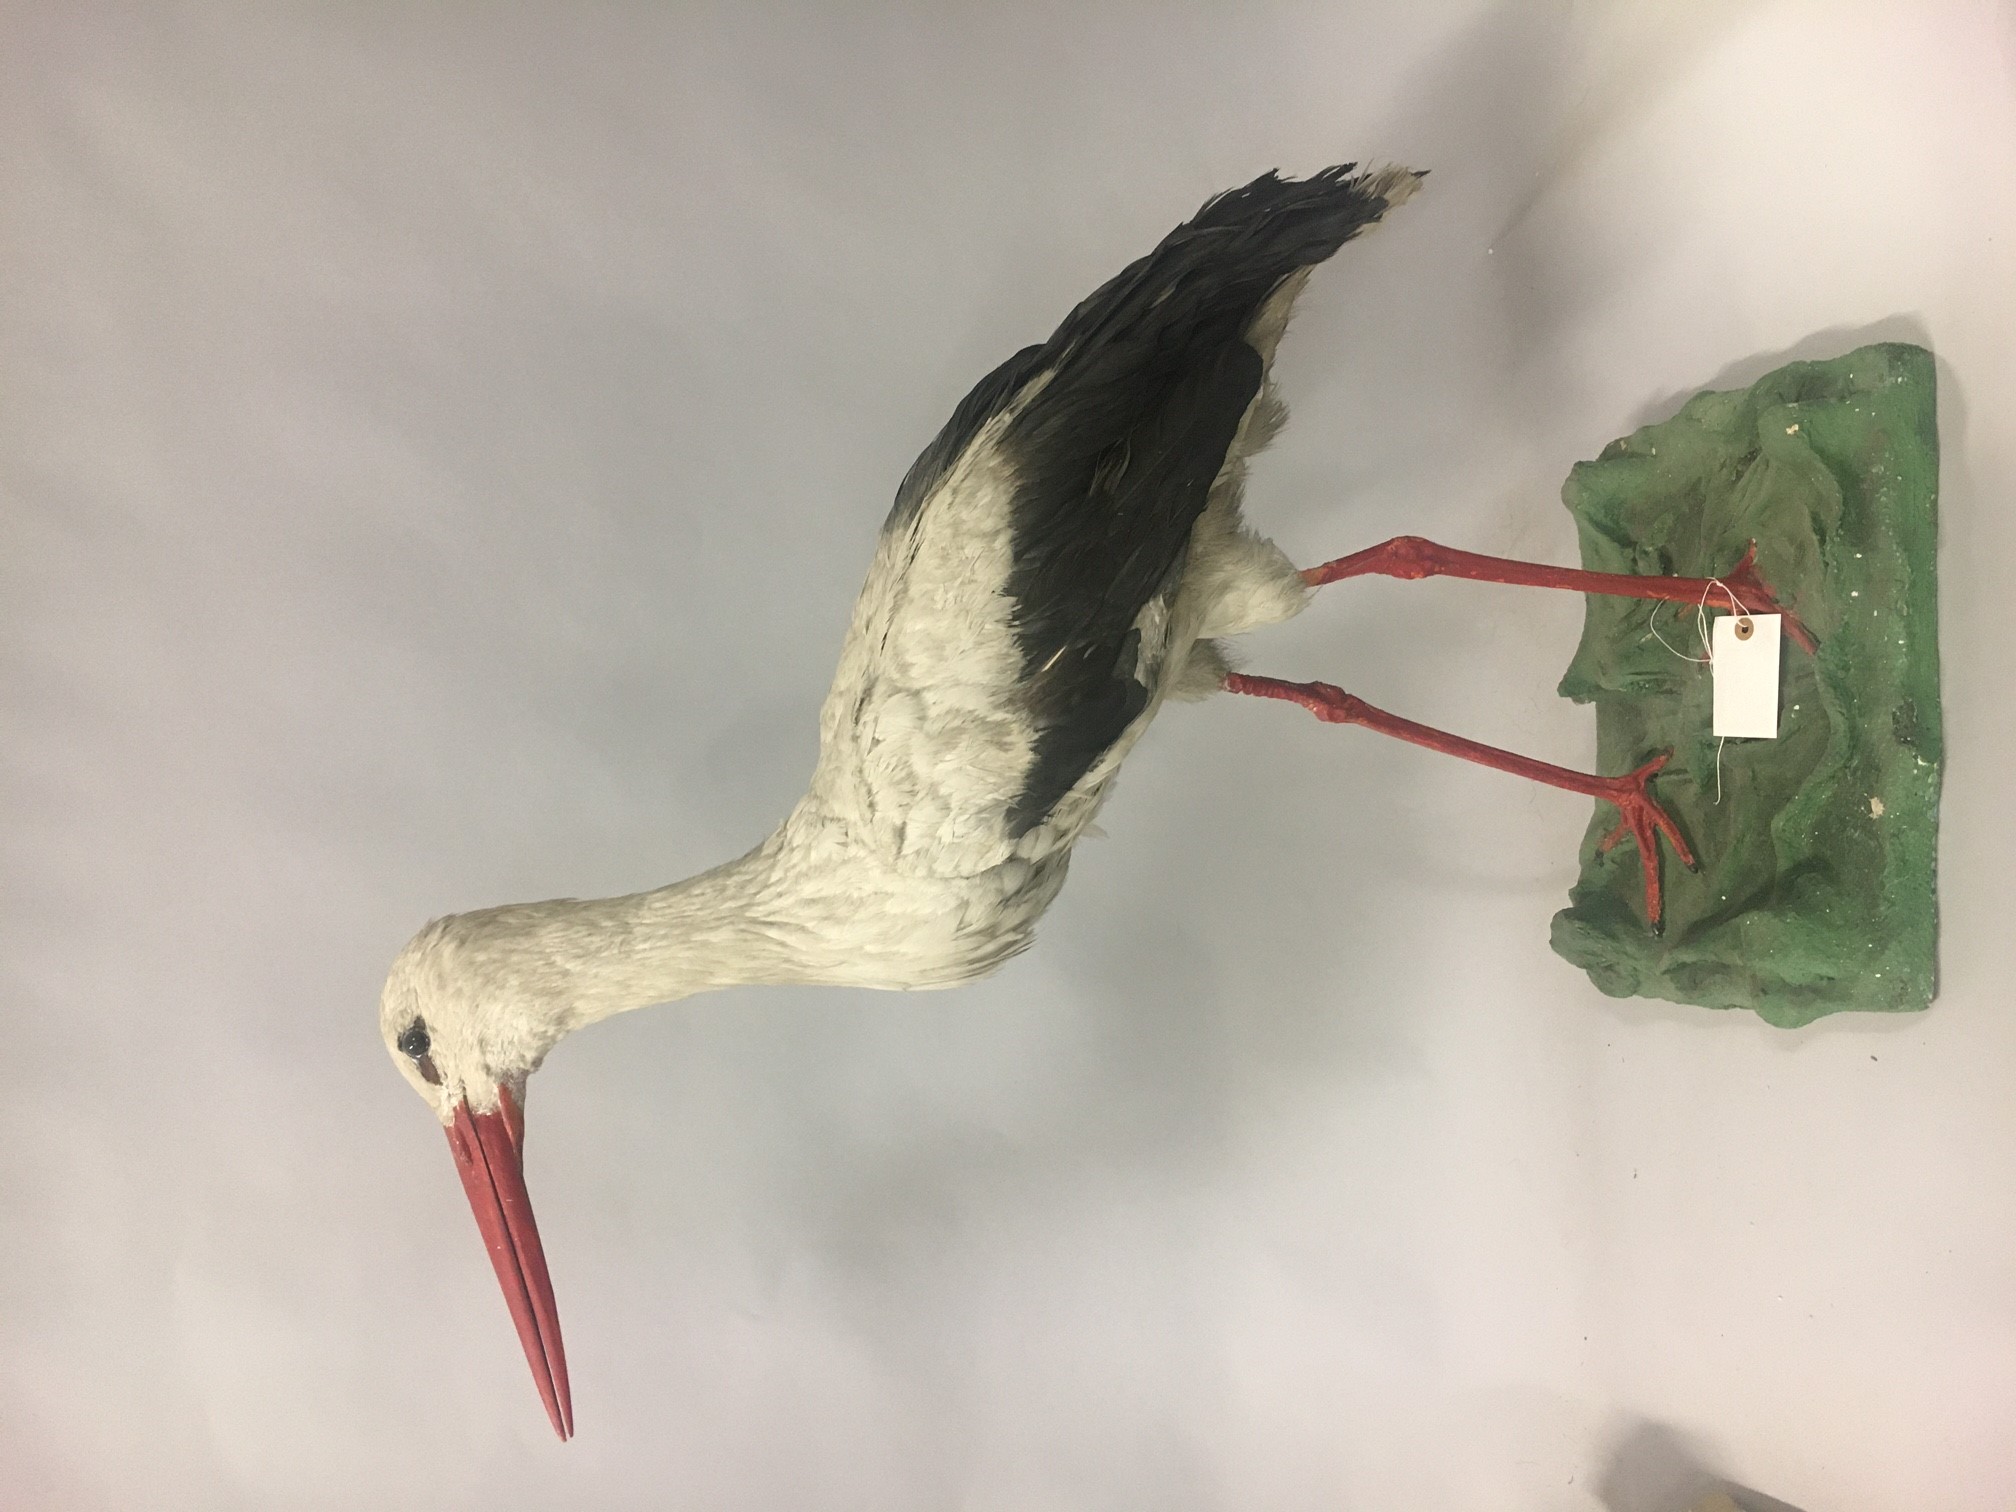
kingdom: Animalia
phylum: Chordata
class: Aves
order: Ciconiiformes
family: Ciconiidae
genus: Ciconia
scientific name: Ciconia ciconia
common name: White stork
